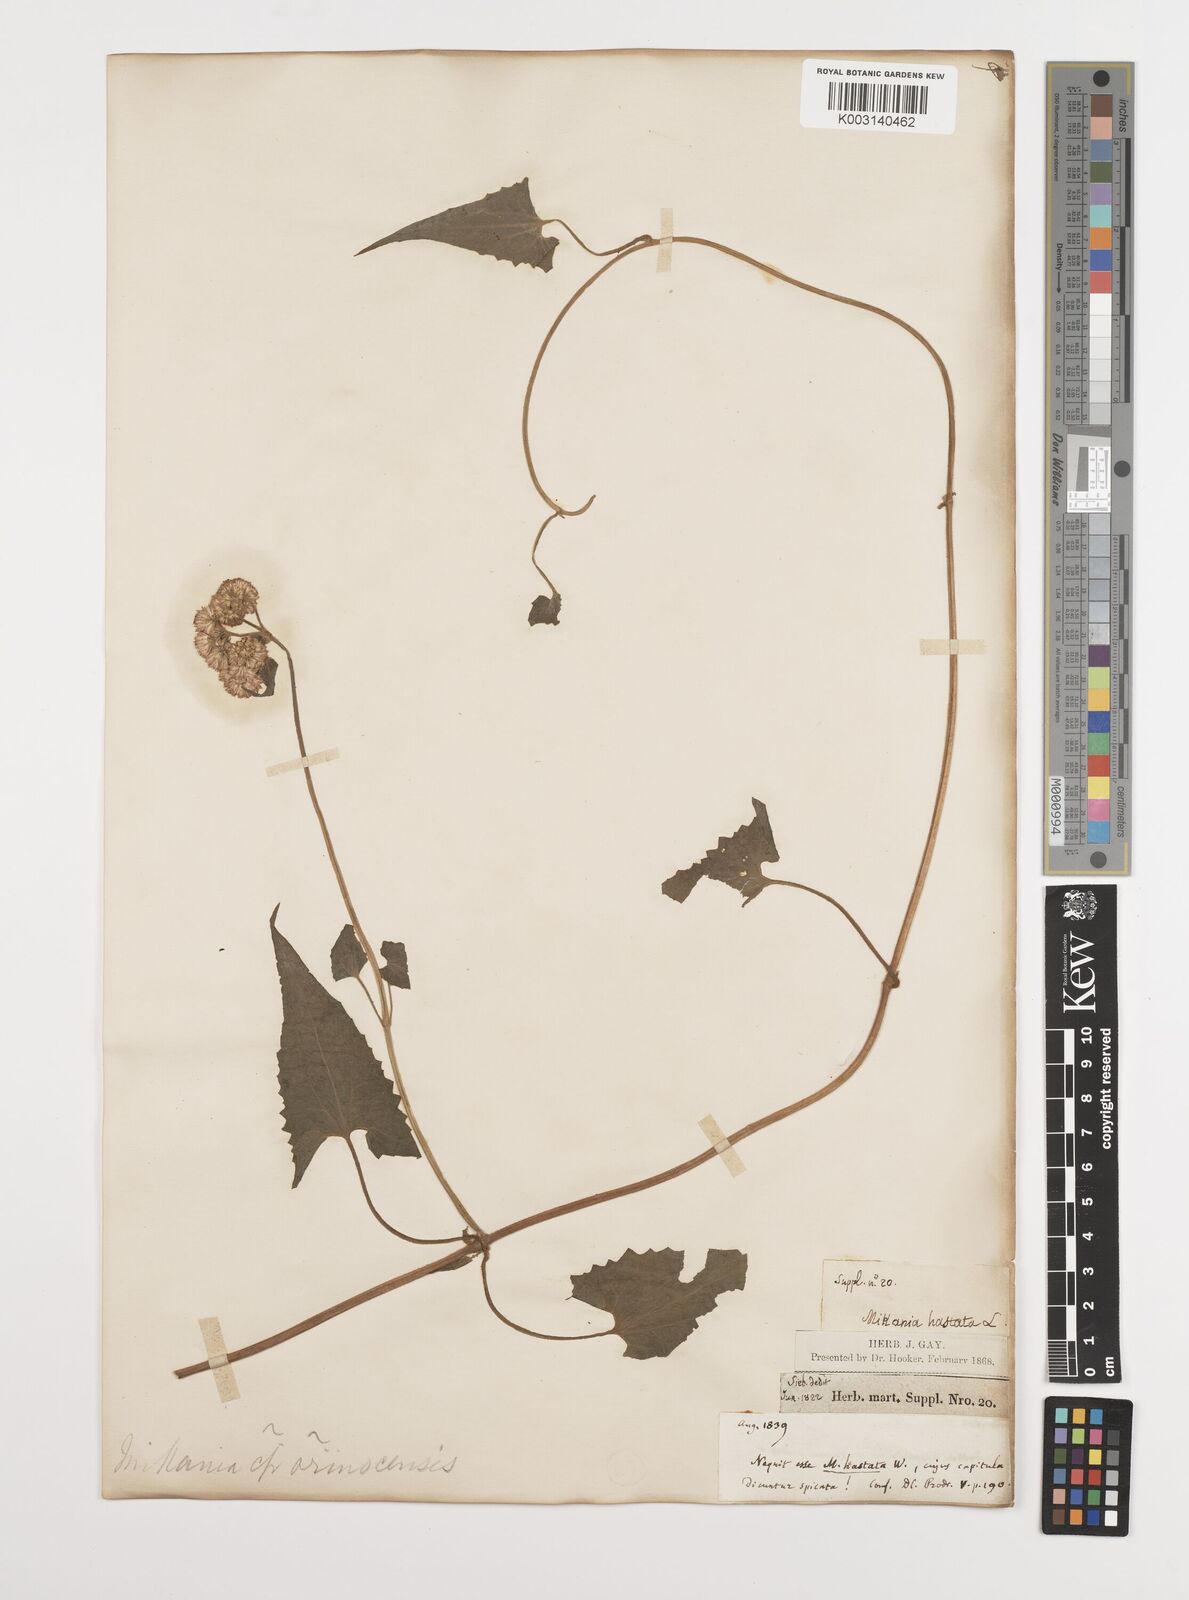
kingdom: Plantae
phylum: Tracheophyta
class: Magnoliopsida
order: Asterales
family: Asteraceae
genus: Mikania
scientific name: Mikania hastata
